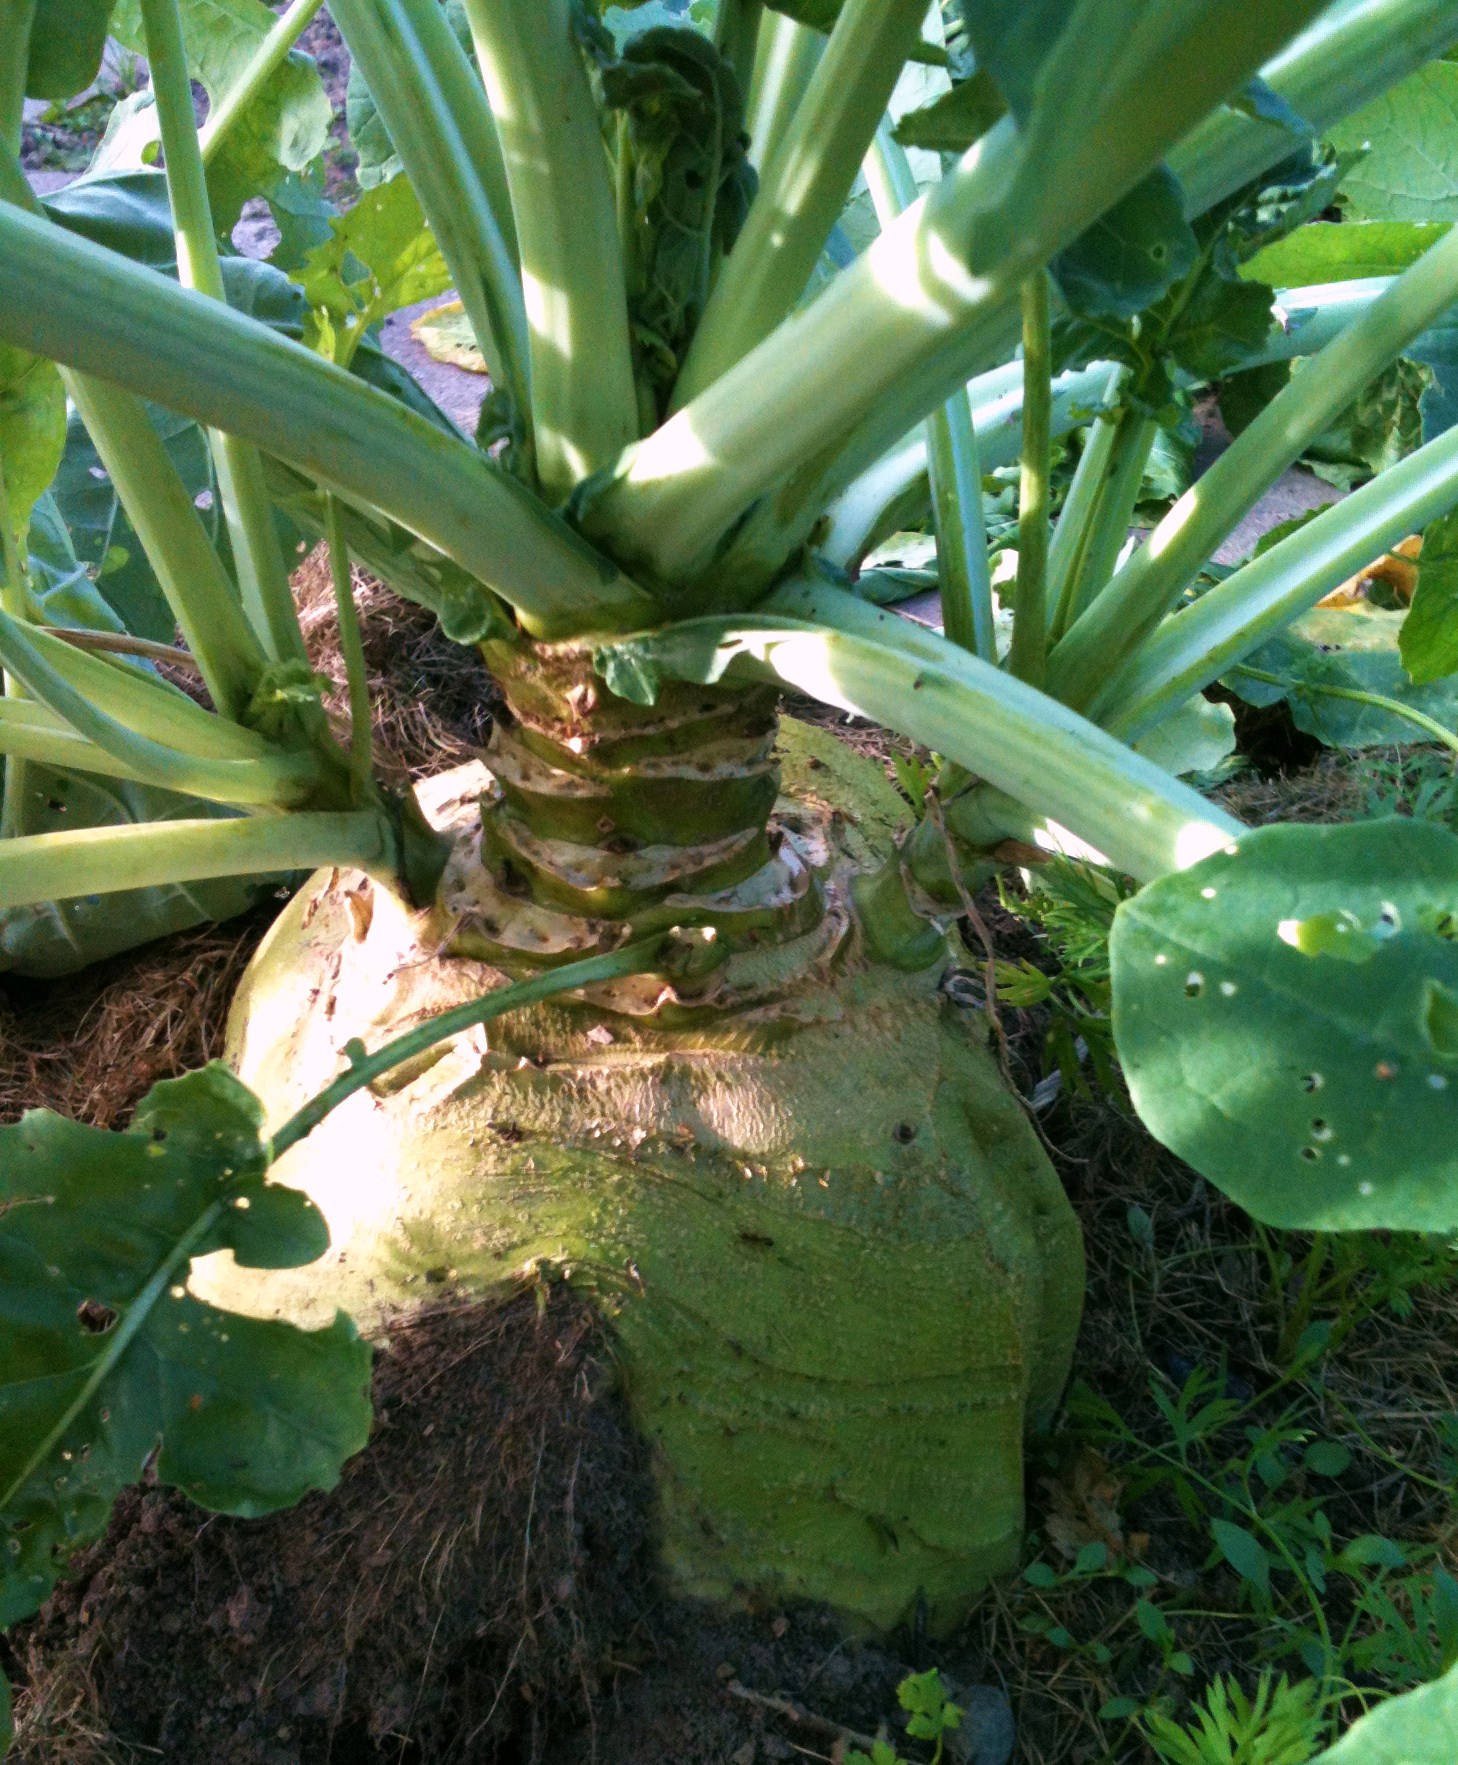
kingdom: Plantae
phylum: Tracheophyta
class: Magnoliopsida
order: Brassicales
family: Brassicaceae
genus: Brassica
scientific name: Brassica napus
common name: Rape
